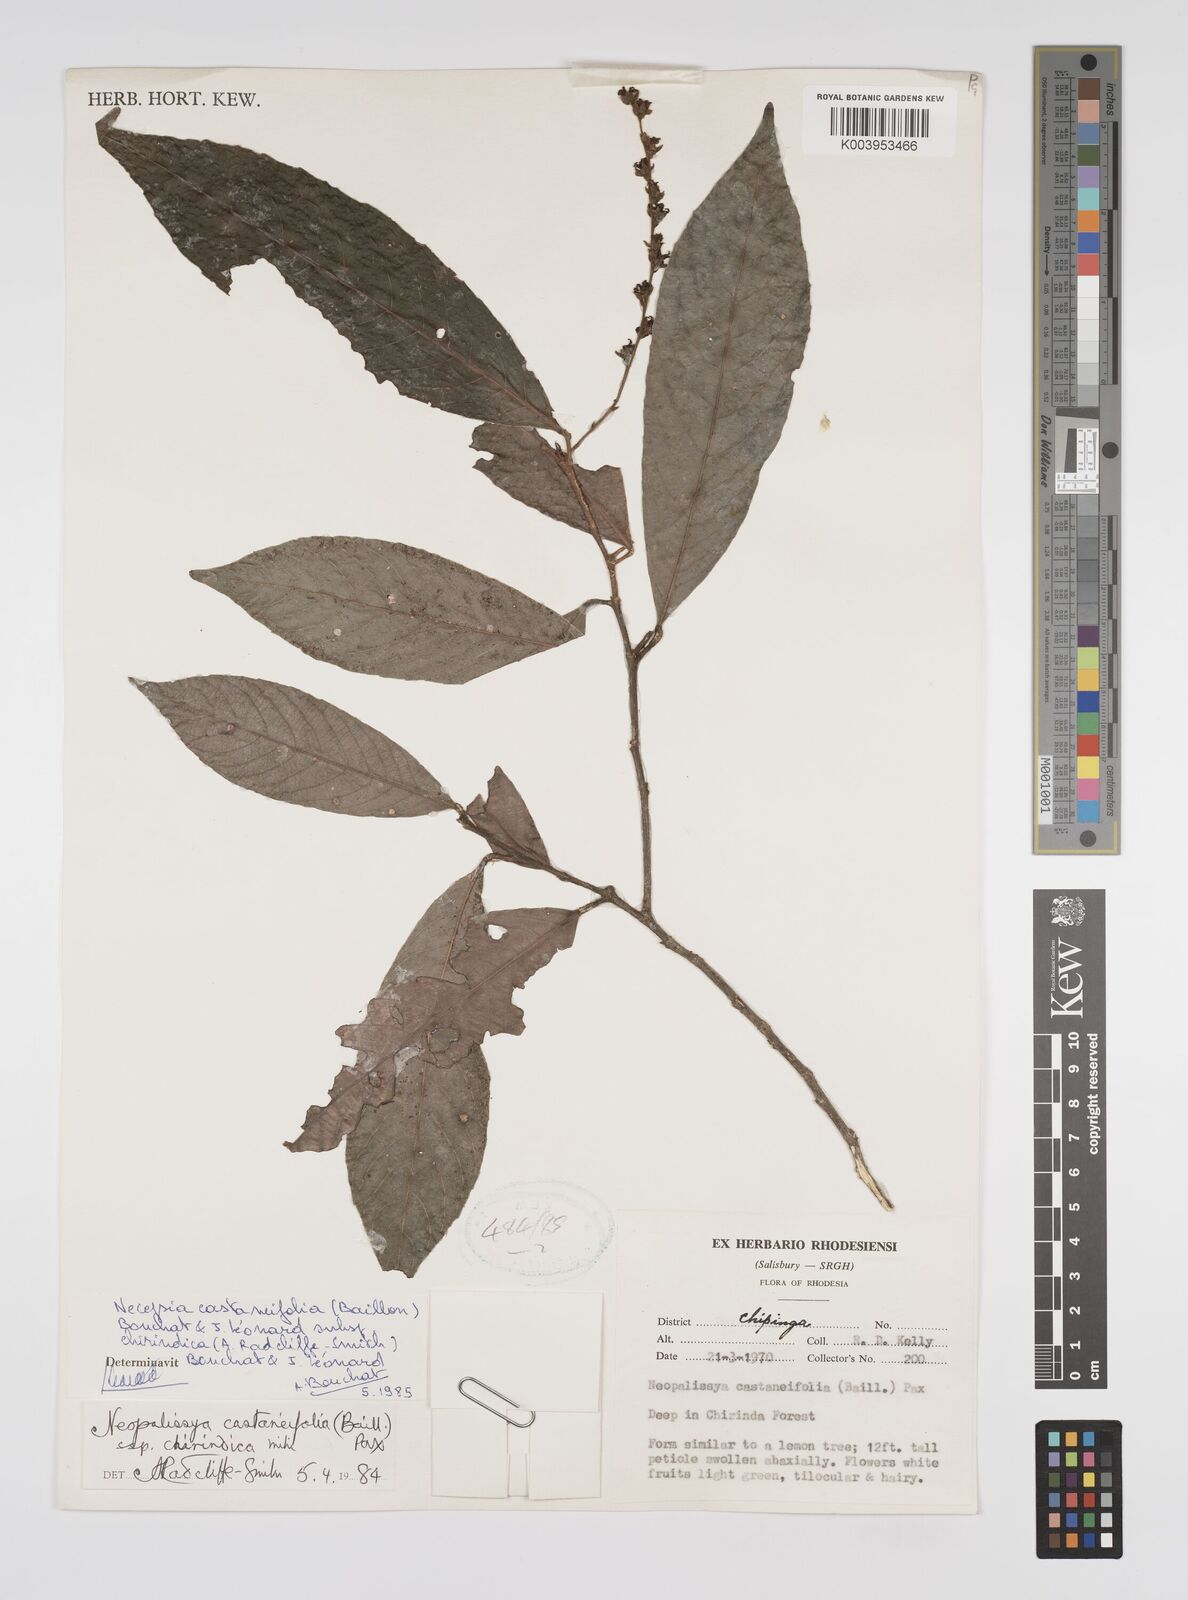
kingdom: Plantae
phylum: Tracheophyta
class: Magnoliopsida
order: Malpighiales
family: Euphorbiaceae
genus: Necepsia
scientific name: Necepsia castaneifolia
